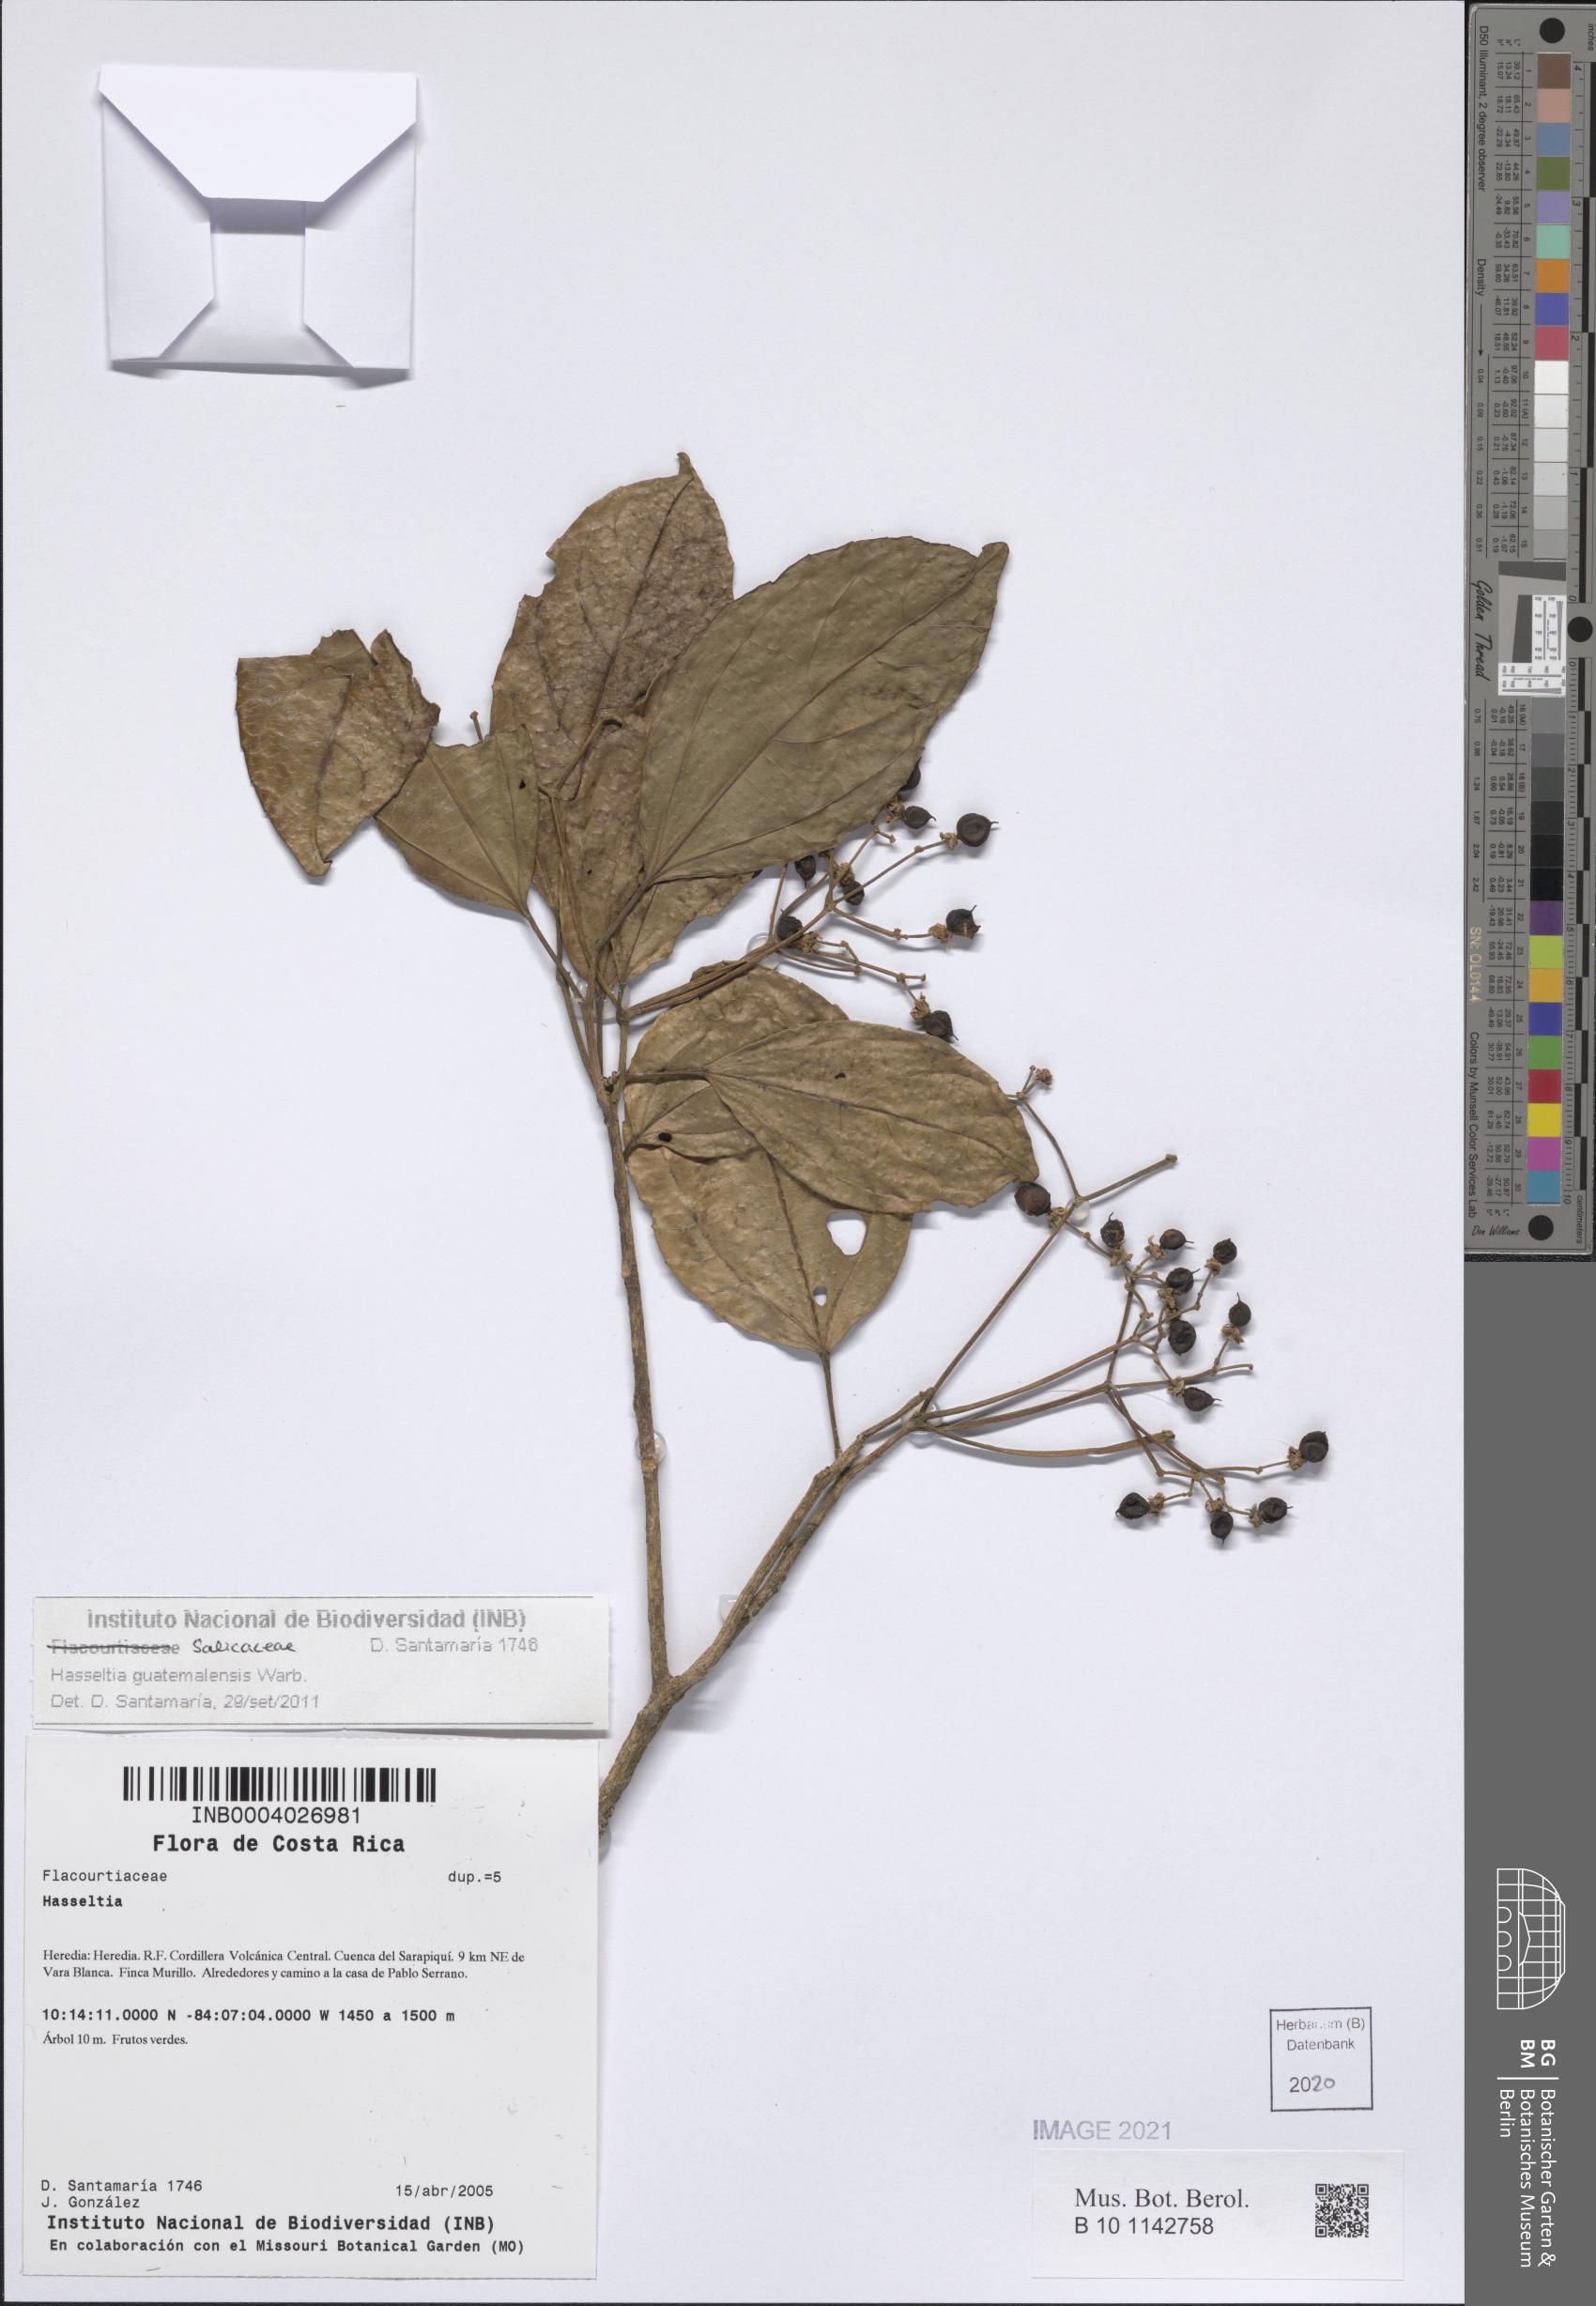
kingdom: Plantae
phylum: Tracheophyta
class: Magnoliopsida
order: Malpighiales
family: Salicaceae
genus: Hasseltia
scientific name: Hasseltia guatemalensis
